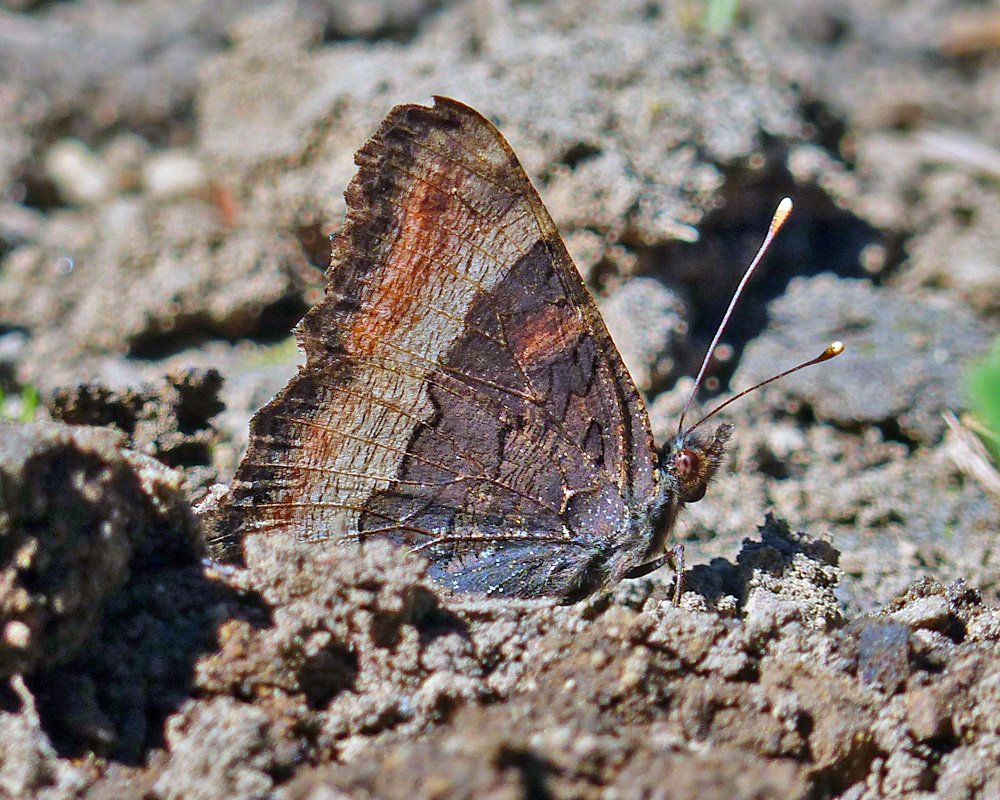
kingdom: Animalia
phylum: Arthropoda
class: Insecta
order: Lepidoptera
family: Nymphalidae
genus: Aglais
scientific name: Aglais milberti
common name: Milbert's Tortoiseshell
